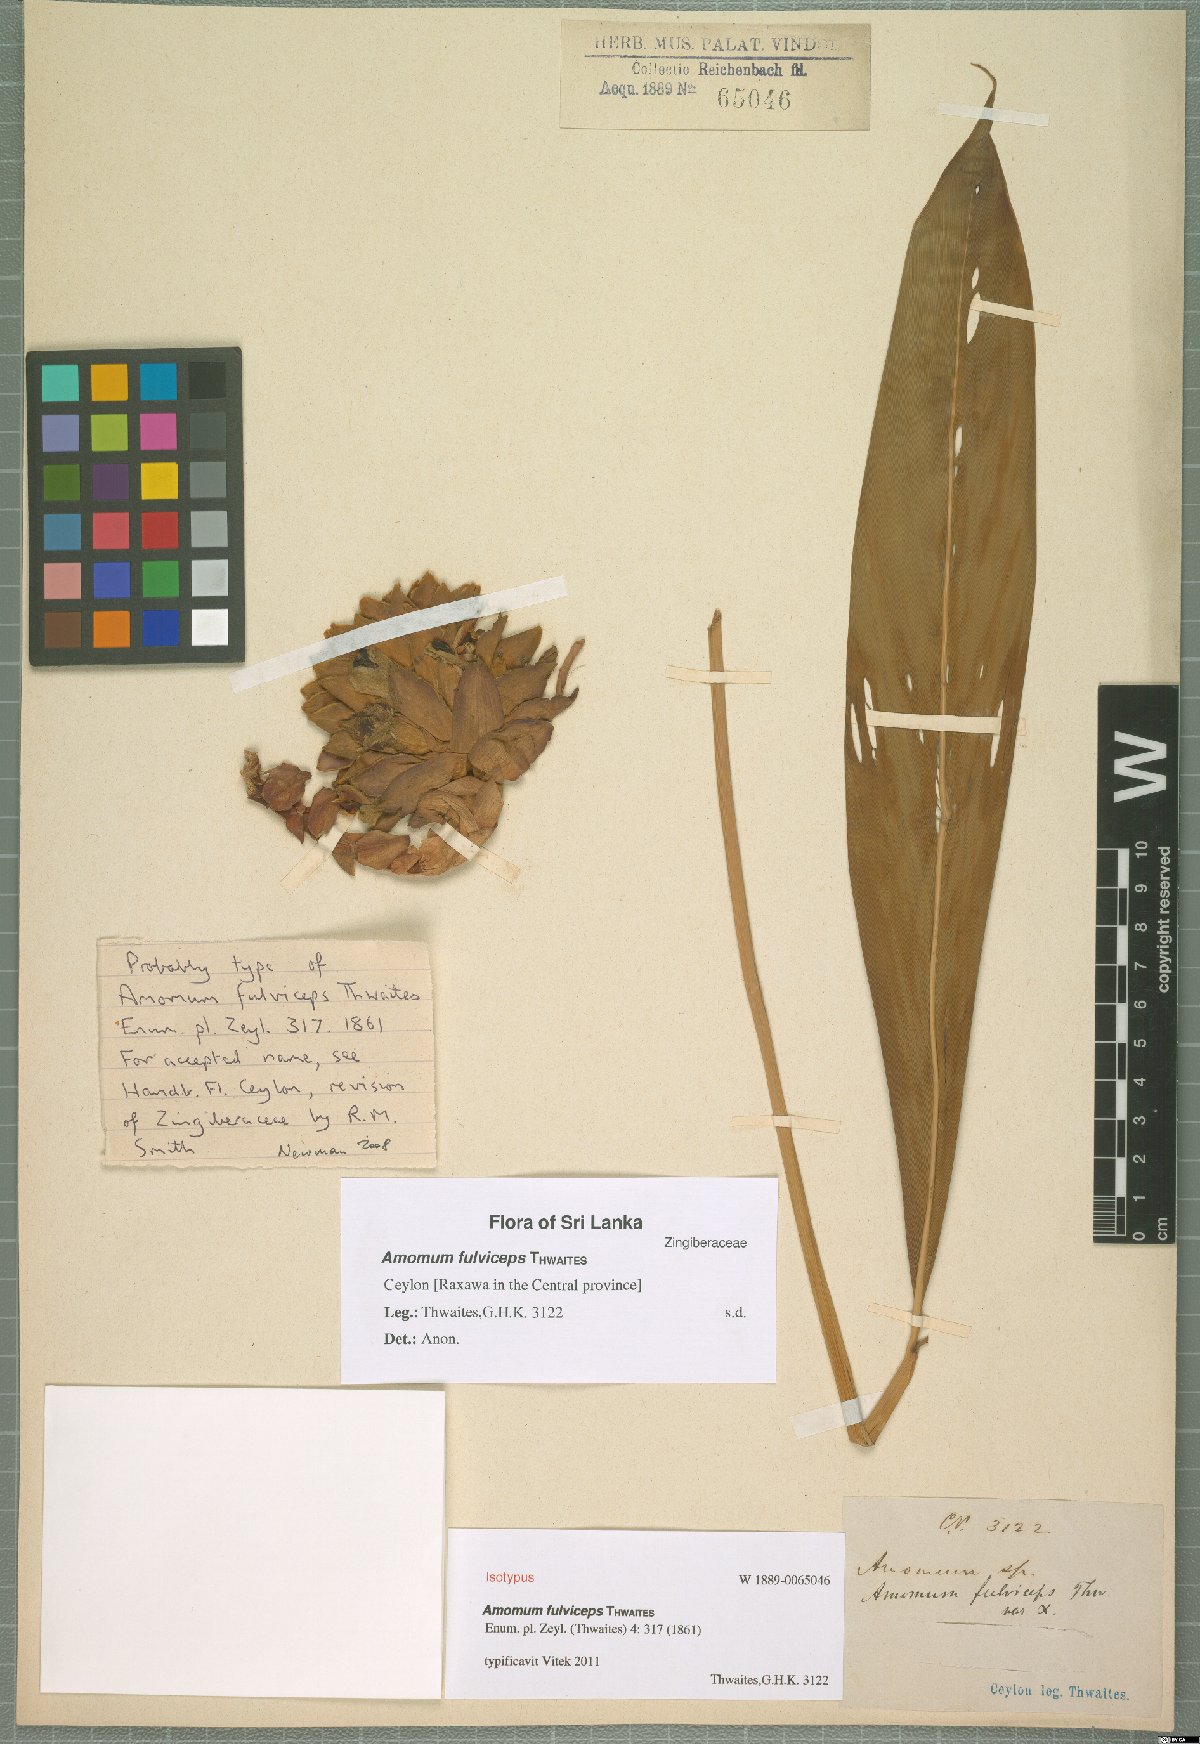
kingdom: Plantae
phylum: Tracheophyta
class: Liliopsida
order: Zingiberales
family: Zingiberaceae
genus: Meistera
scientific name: Meistera fulviceps
